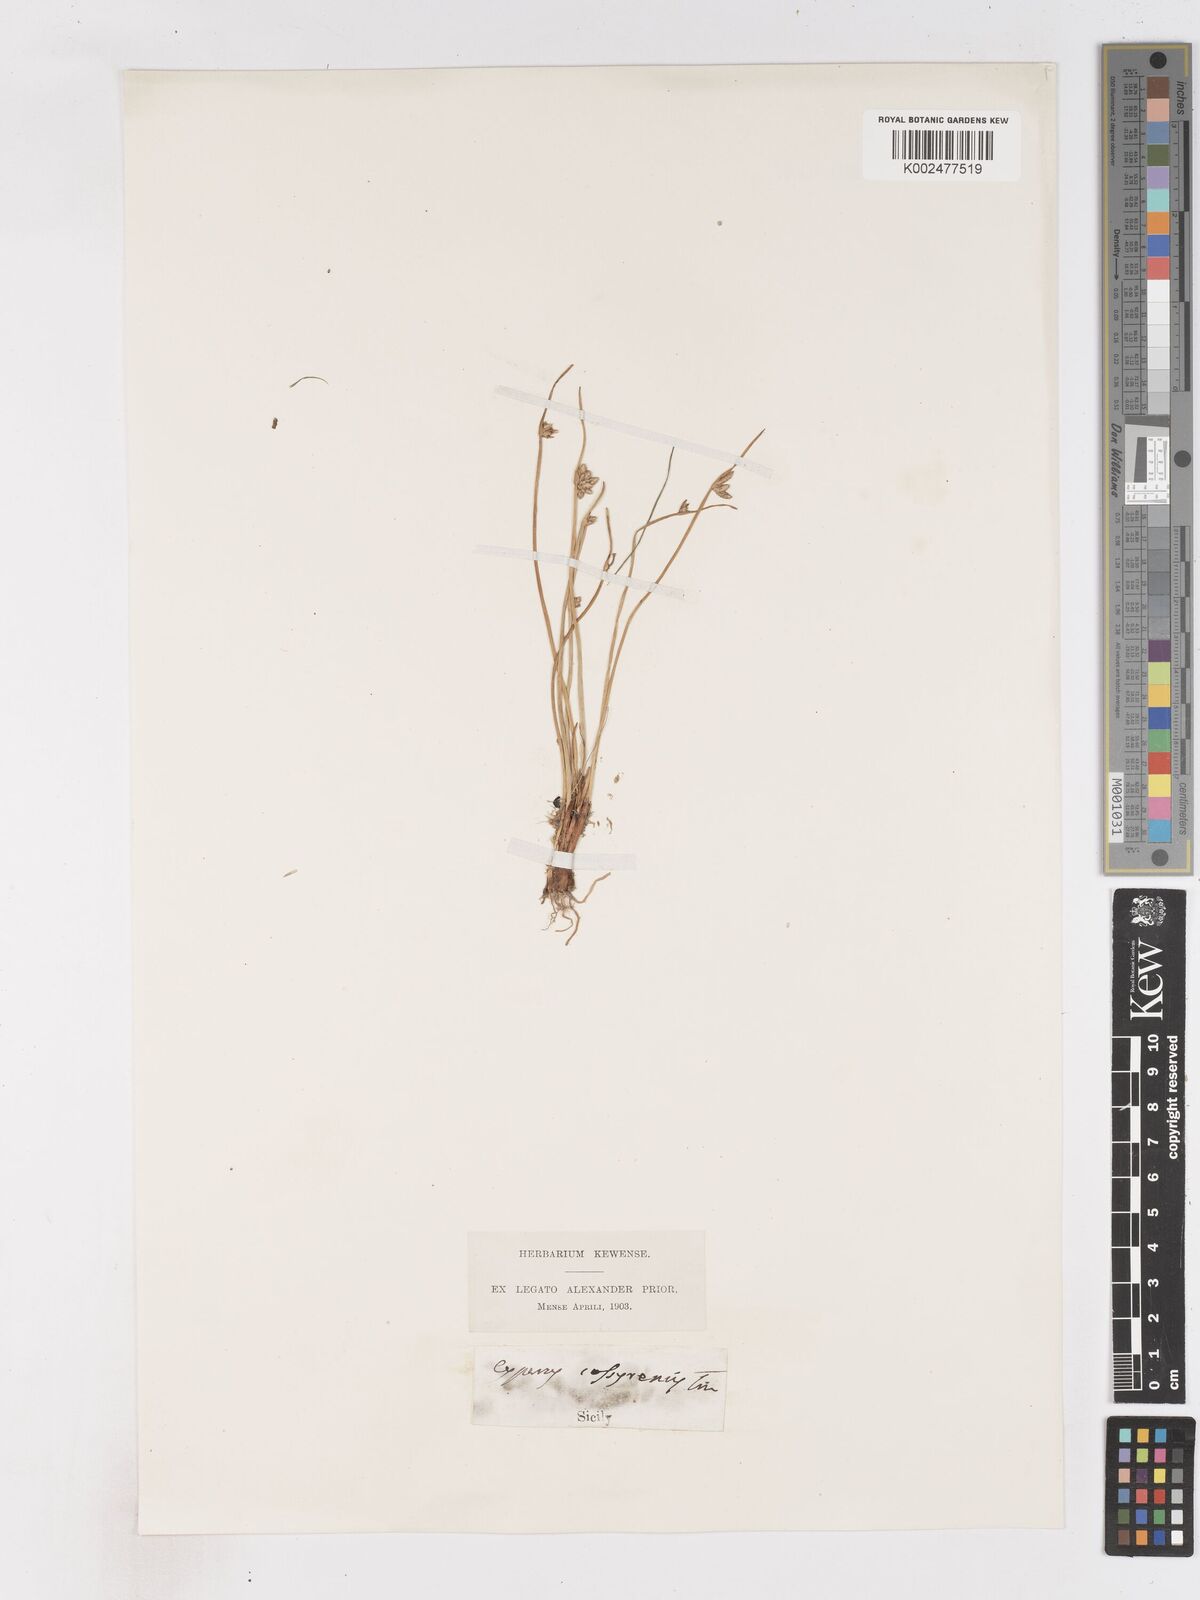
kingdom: Plantae
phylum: Tracheophyta
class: Liliopsida
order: Poales
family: Cyperaceae
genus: Cyperus
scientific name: Cyperus laevigatus
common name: Smooth flat sedge
